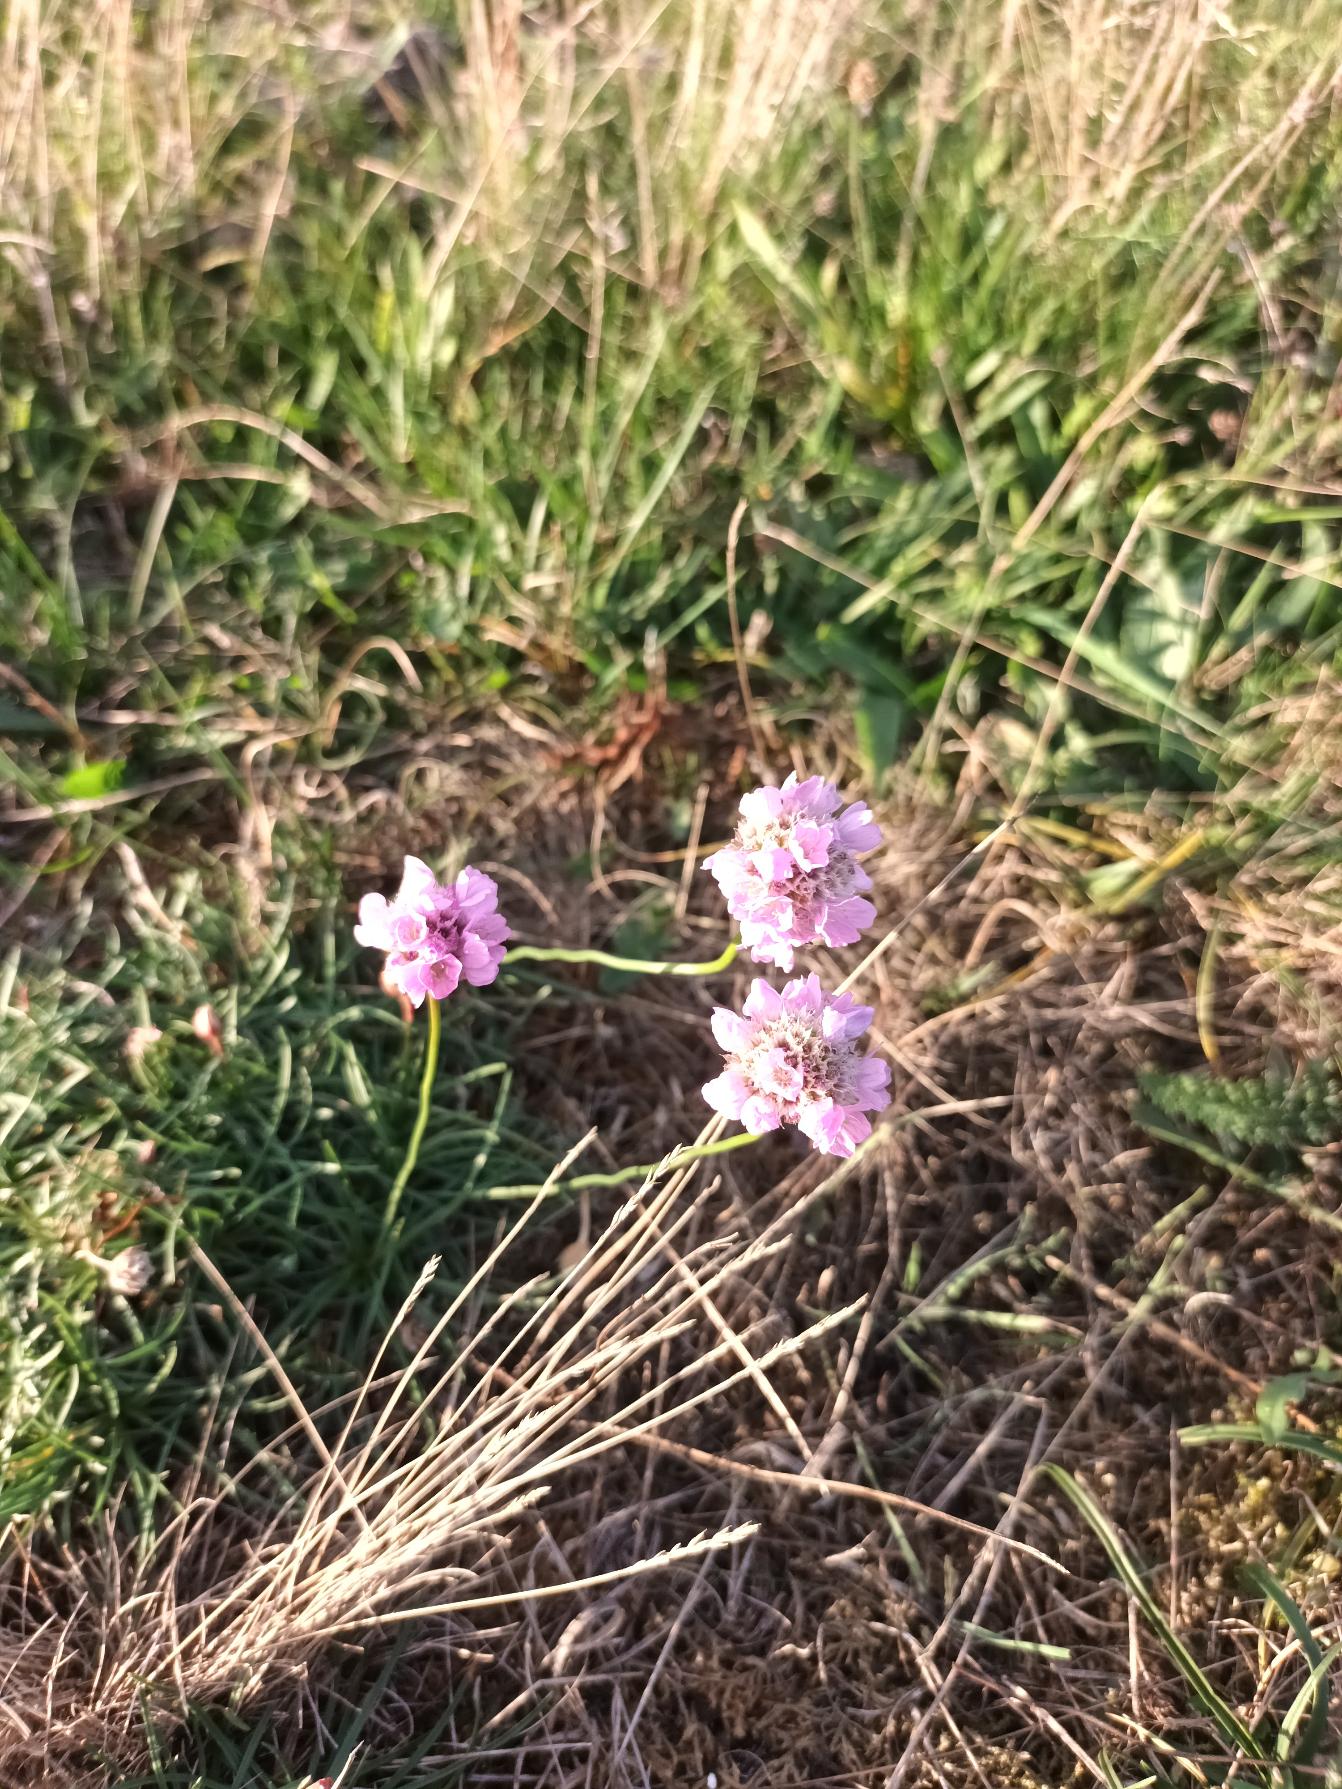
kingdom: Plantae
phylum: Tracheophyta
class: Magnoliopsida
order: Caryophyllales
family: Plumbaginaceae
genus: Armeria
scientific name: Armeria maritima
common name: Engelskgræs
